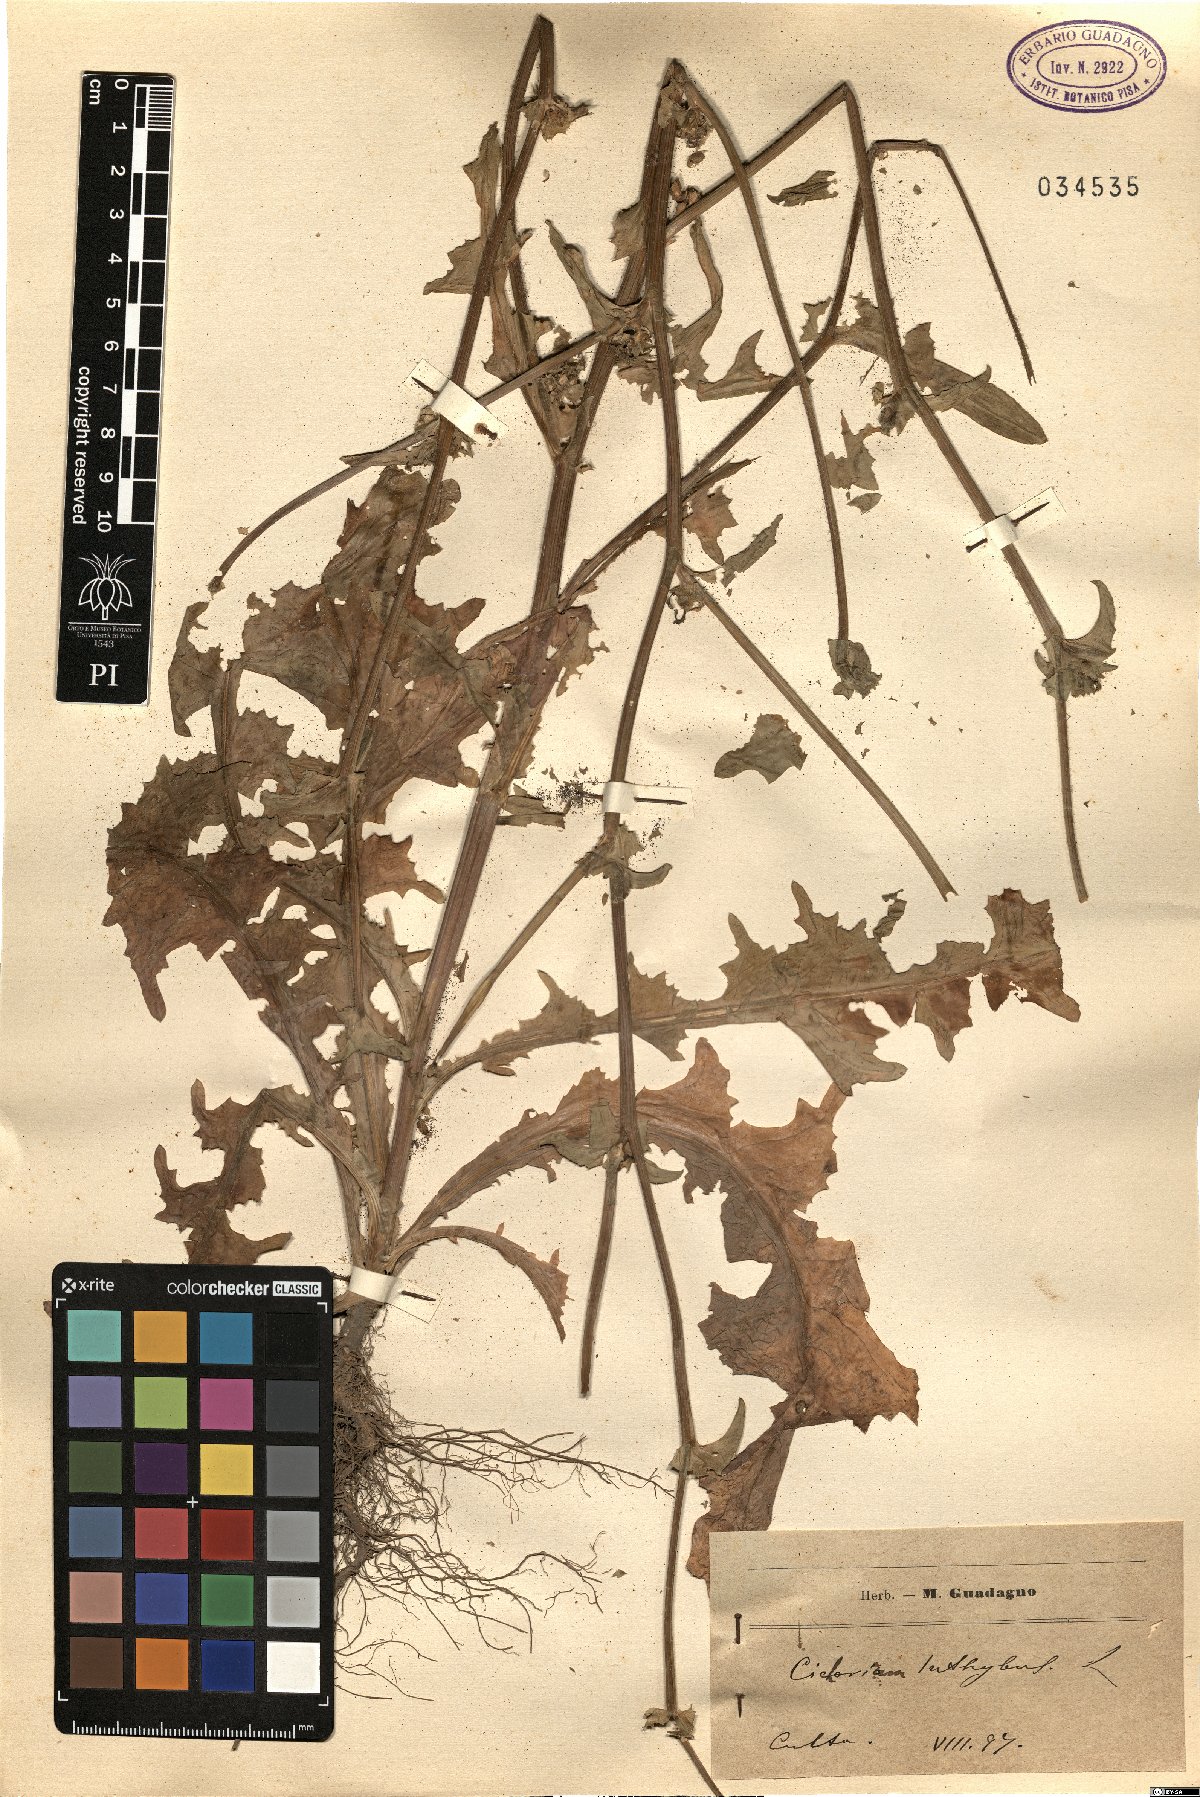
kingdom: Plantae
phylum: Tracheophyta
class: Magnoliopsida
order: Asterales
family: Asteraceae
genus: Cichorium
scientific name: Cichorium intybus
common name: Chicory
